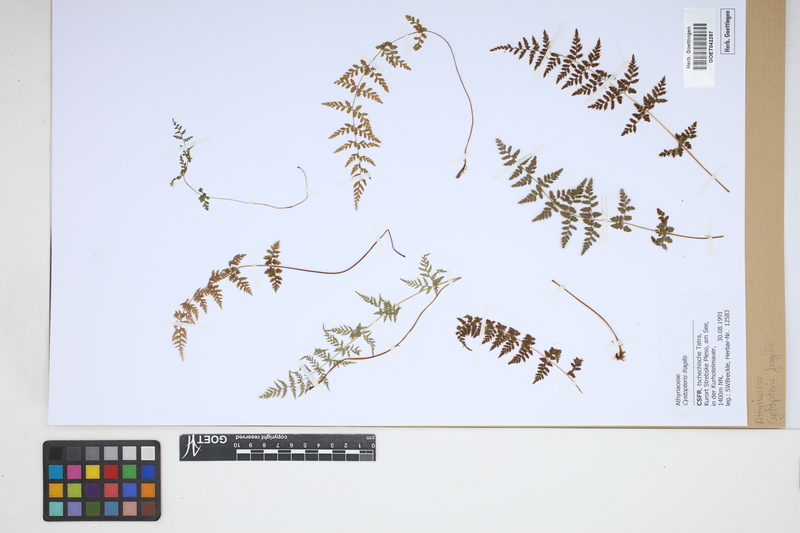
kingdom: Plantae
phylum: Tracheophyta
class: Polypodiopsida
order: Polypodiales
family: Cystopteridaceae
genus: Cystopteris
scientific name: Cystopteris fragilis
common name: Brittle bladder fern
